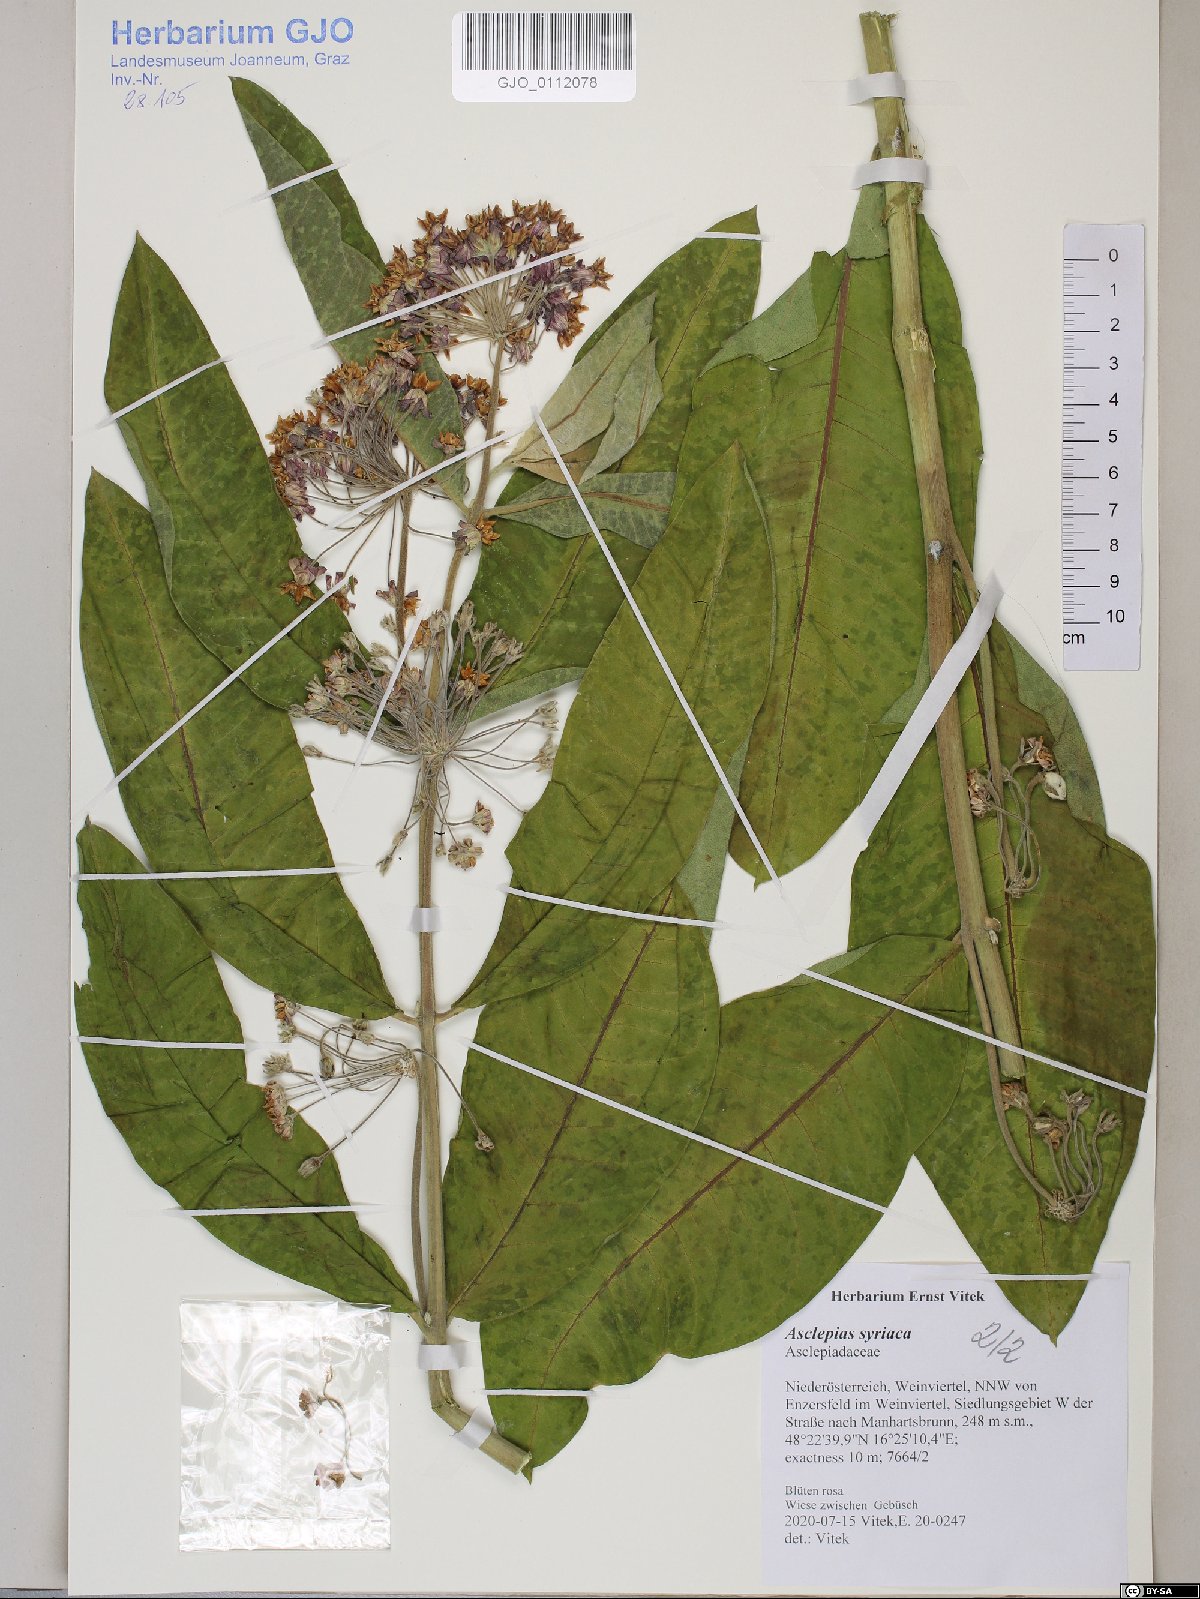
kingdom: Plantae
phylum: Tracheophyta
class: Magnoliopsida
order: Gentianales
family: Apocynaceae
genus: Asclepias
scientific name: Asclepias syriaca
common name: Common milkweed
